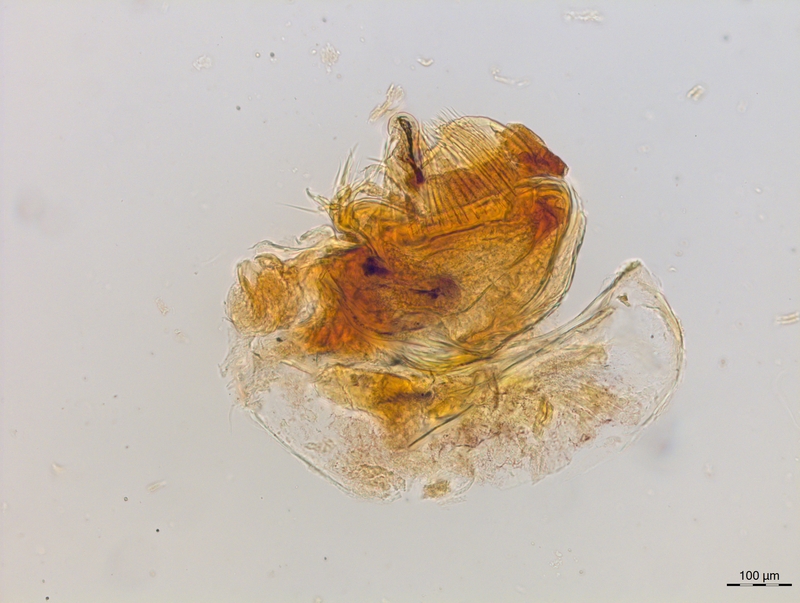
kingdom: Animalia
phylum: Arthropoda
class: Diplopoda
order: Chordeumatida
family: Craspedosomatidae
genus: Craspedosoma
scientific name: Craspedosoma slavum
